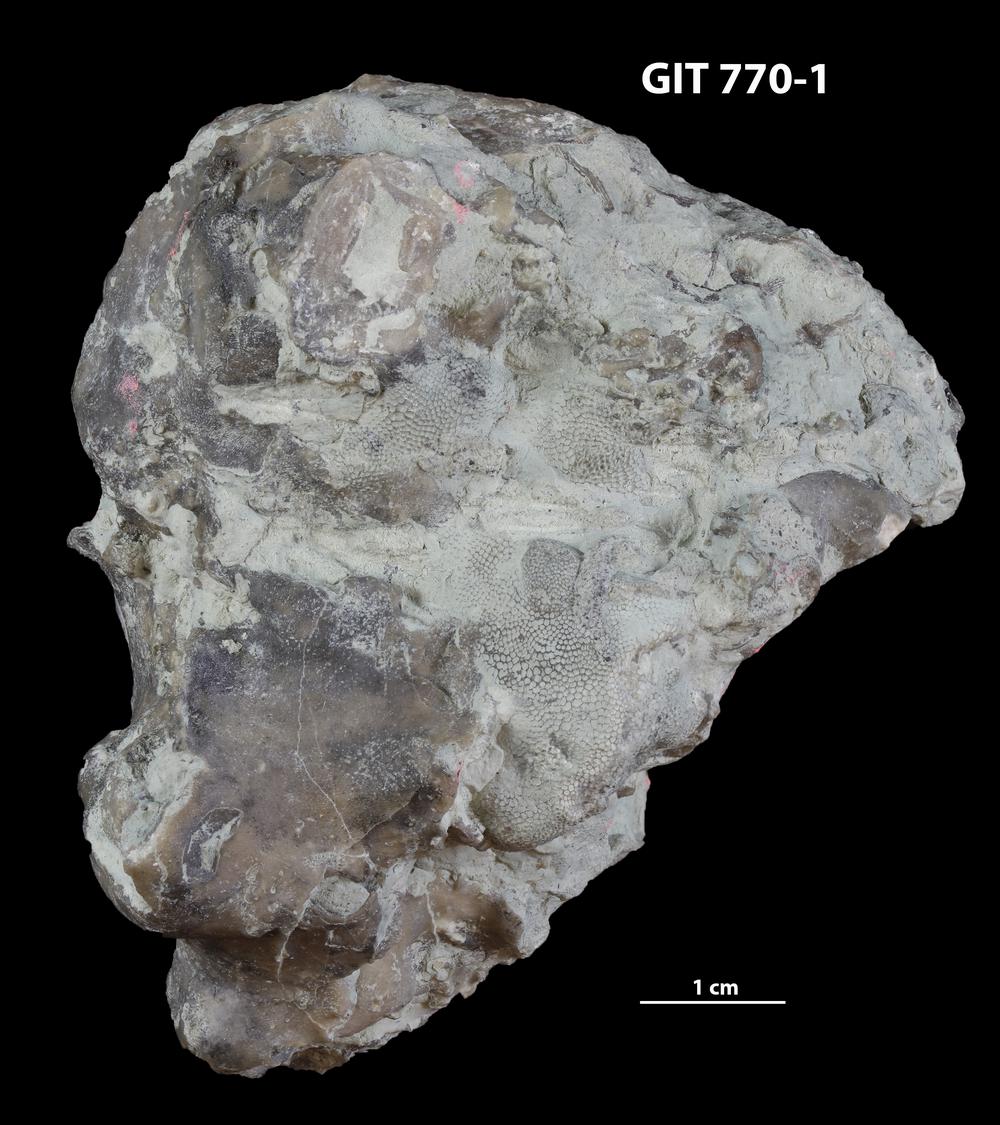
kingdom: Animalia
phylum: Porifera
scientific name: Porifera
